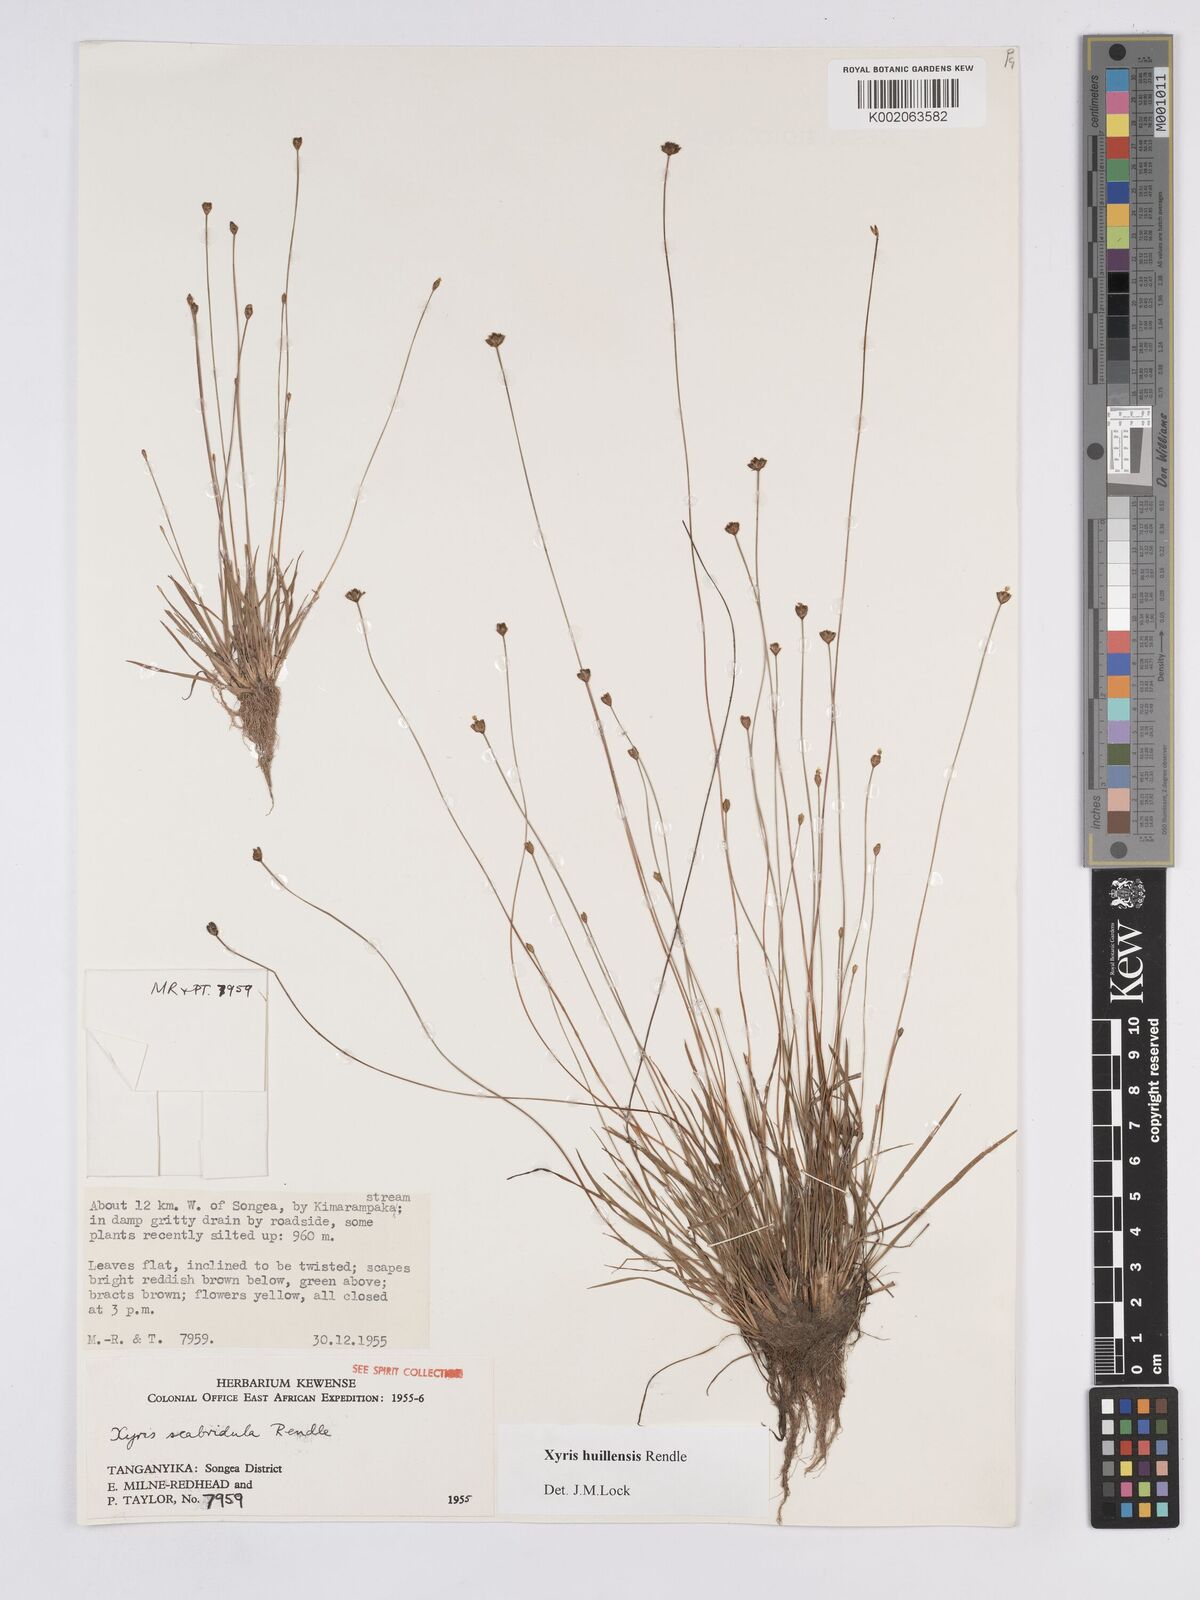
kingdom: Plantae
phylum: Tracheophyta
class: Liliopsida
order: Poales
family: Xyridaceae
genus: Xyris
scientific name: Xyris huillensis
